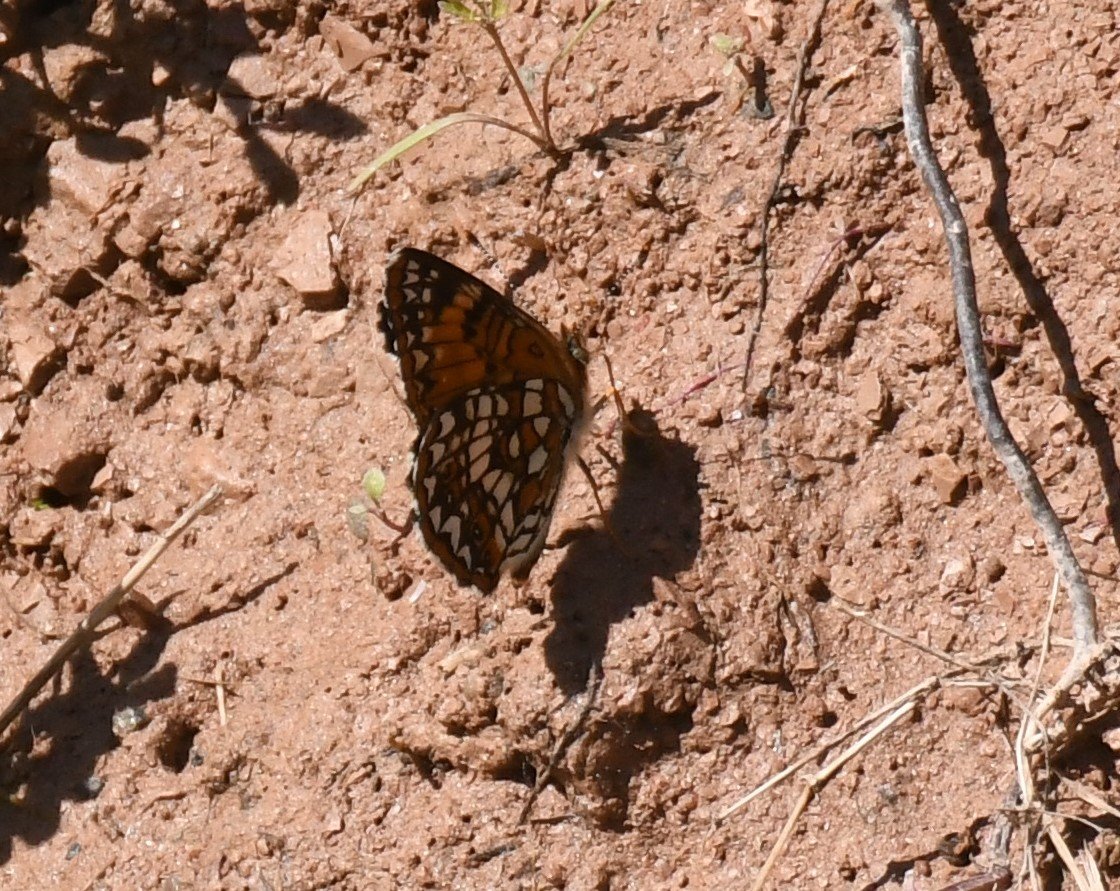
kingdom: Animalia
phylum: Arthropoda
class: Insecta
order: Lepidoptera
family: Nymphalidae
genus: Chlosyne
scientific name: Chlosyne harrisii
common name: Harris's Checkerspot
